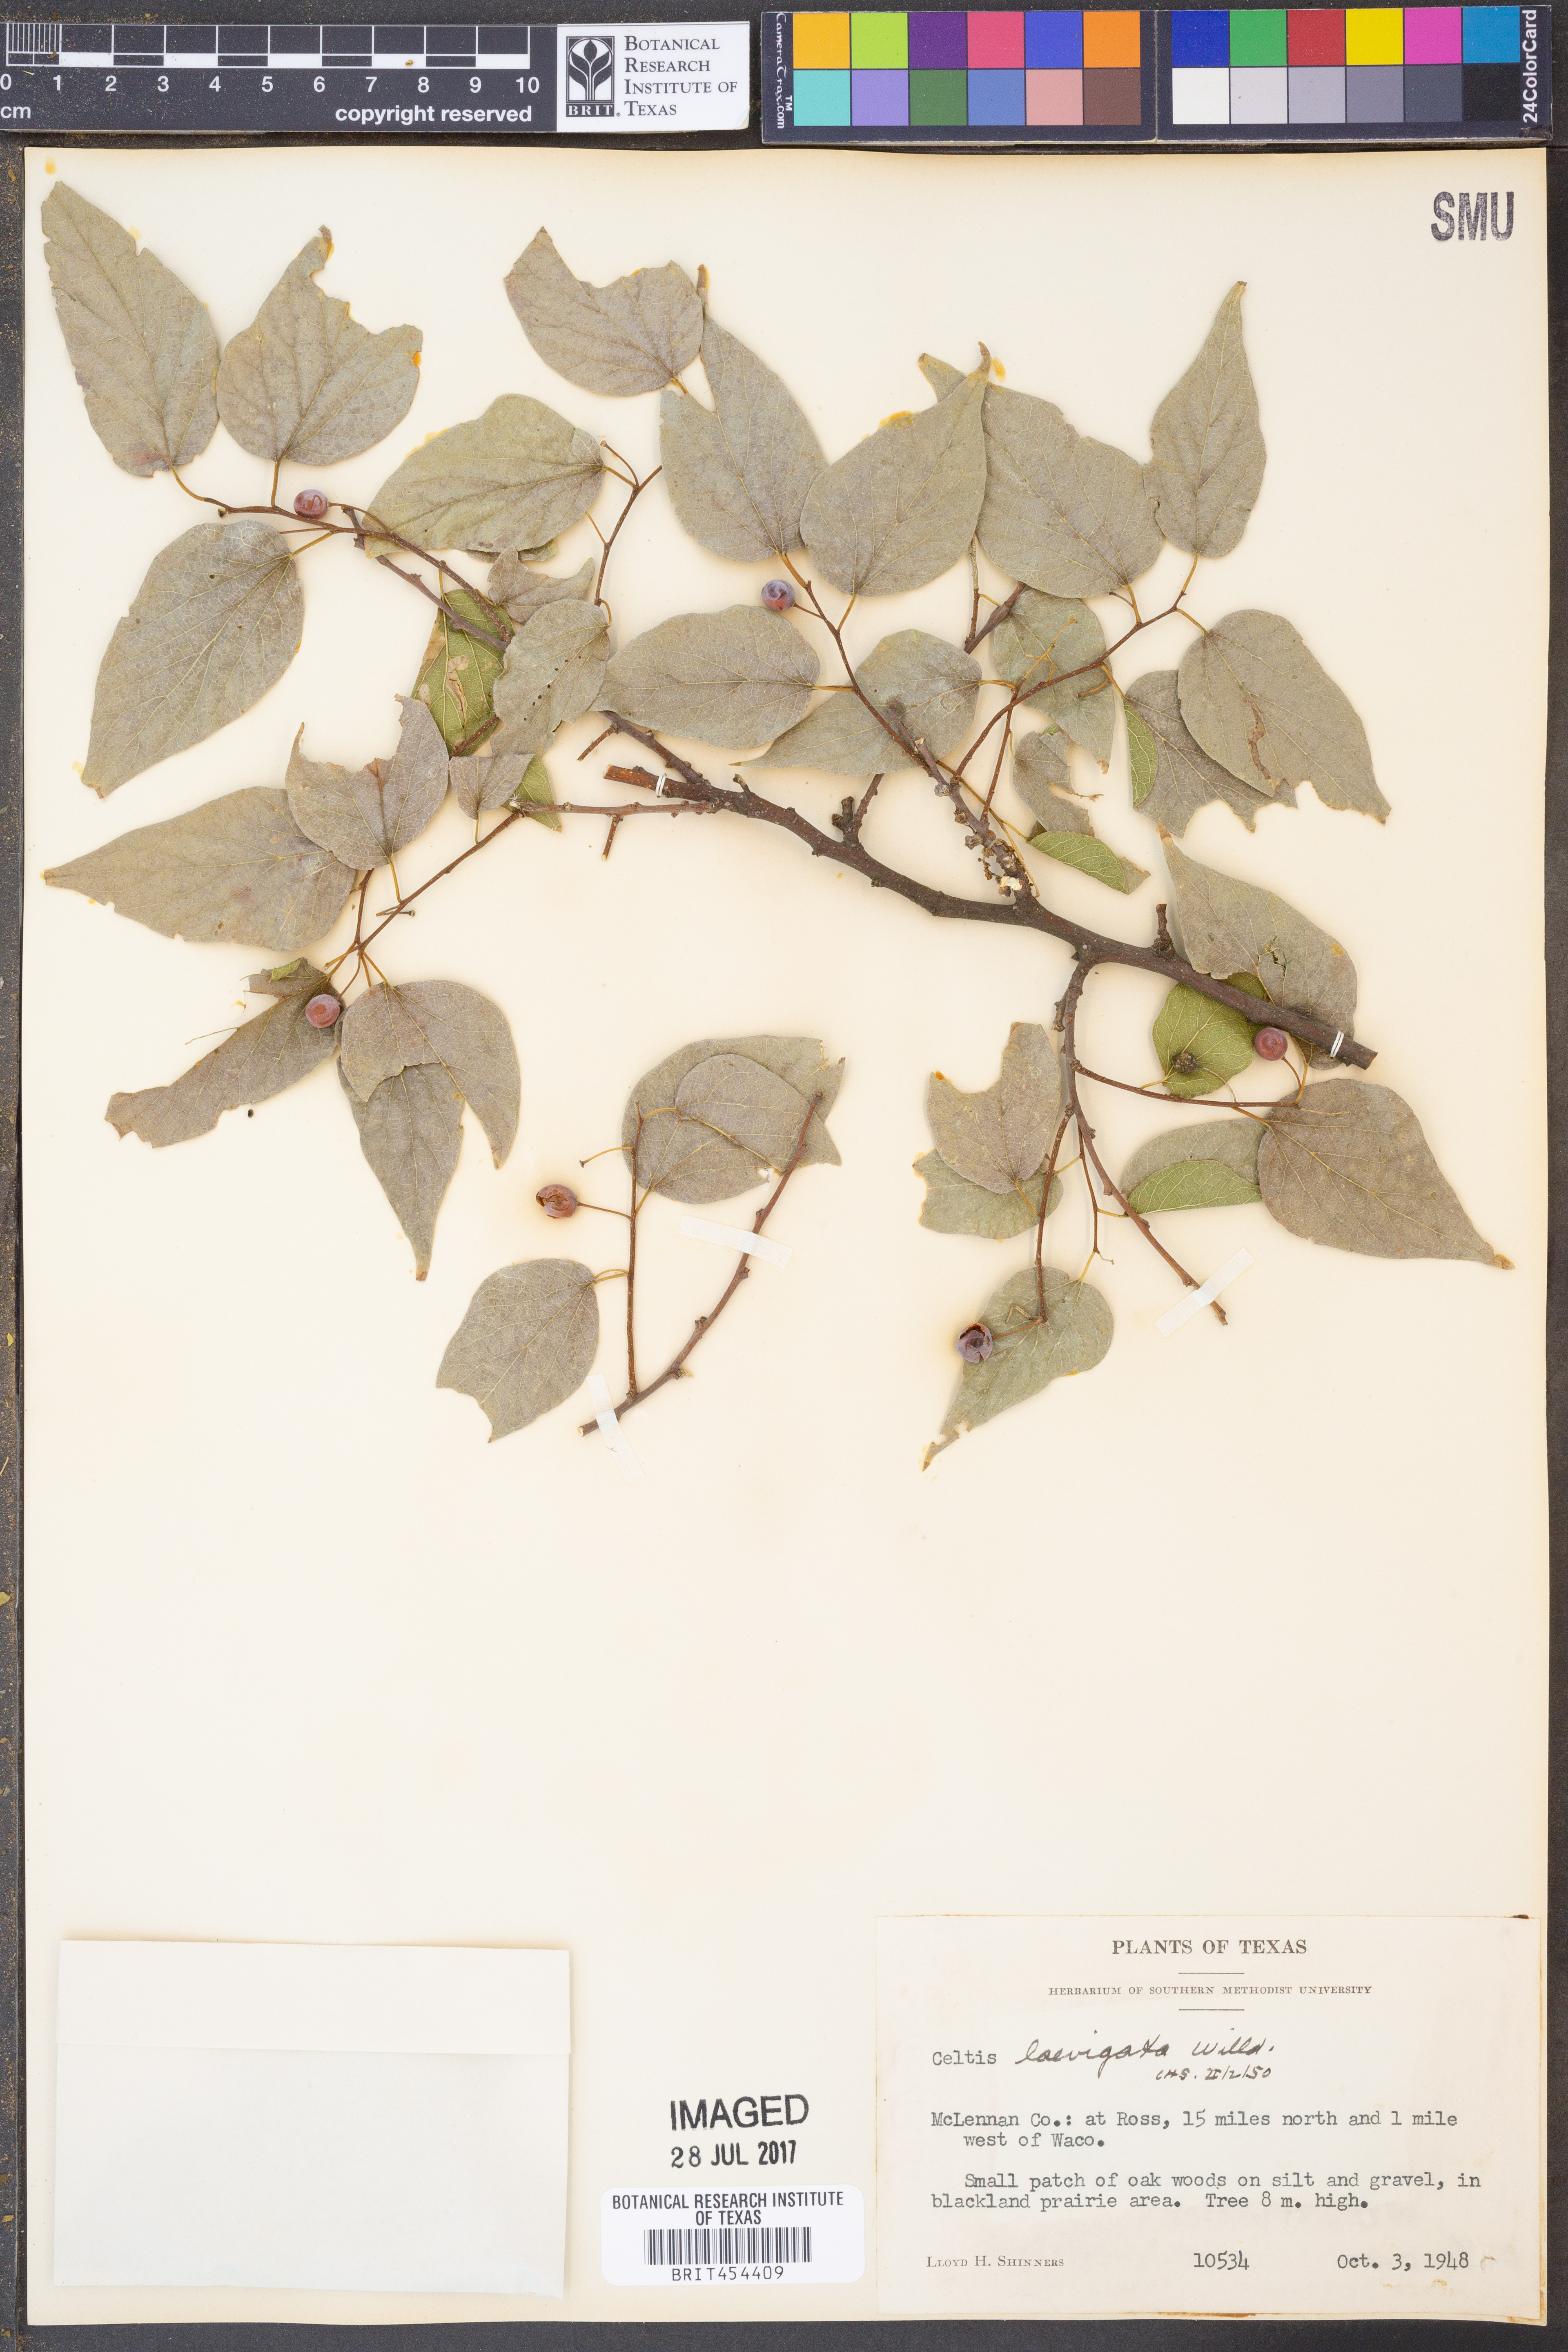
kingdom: Plantae
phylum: Tracheophyta
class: Magnoliopsida
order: Rosales
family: Cannabaceae
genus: Celtis
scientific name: Celtis laevigata
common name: Sugarberry
